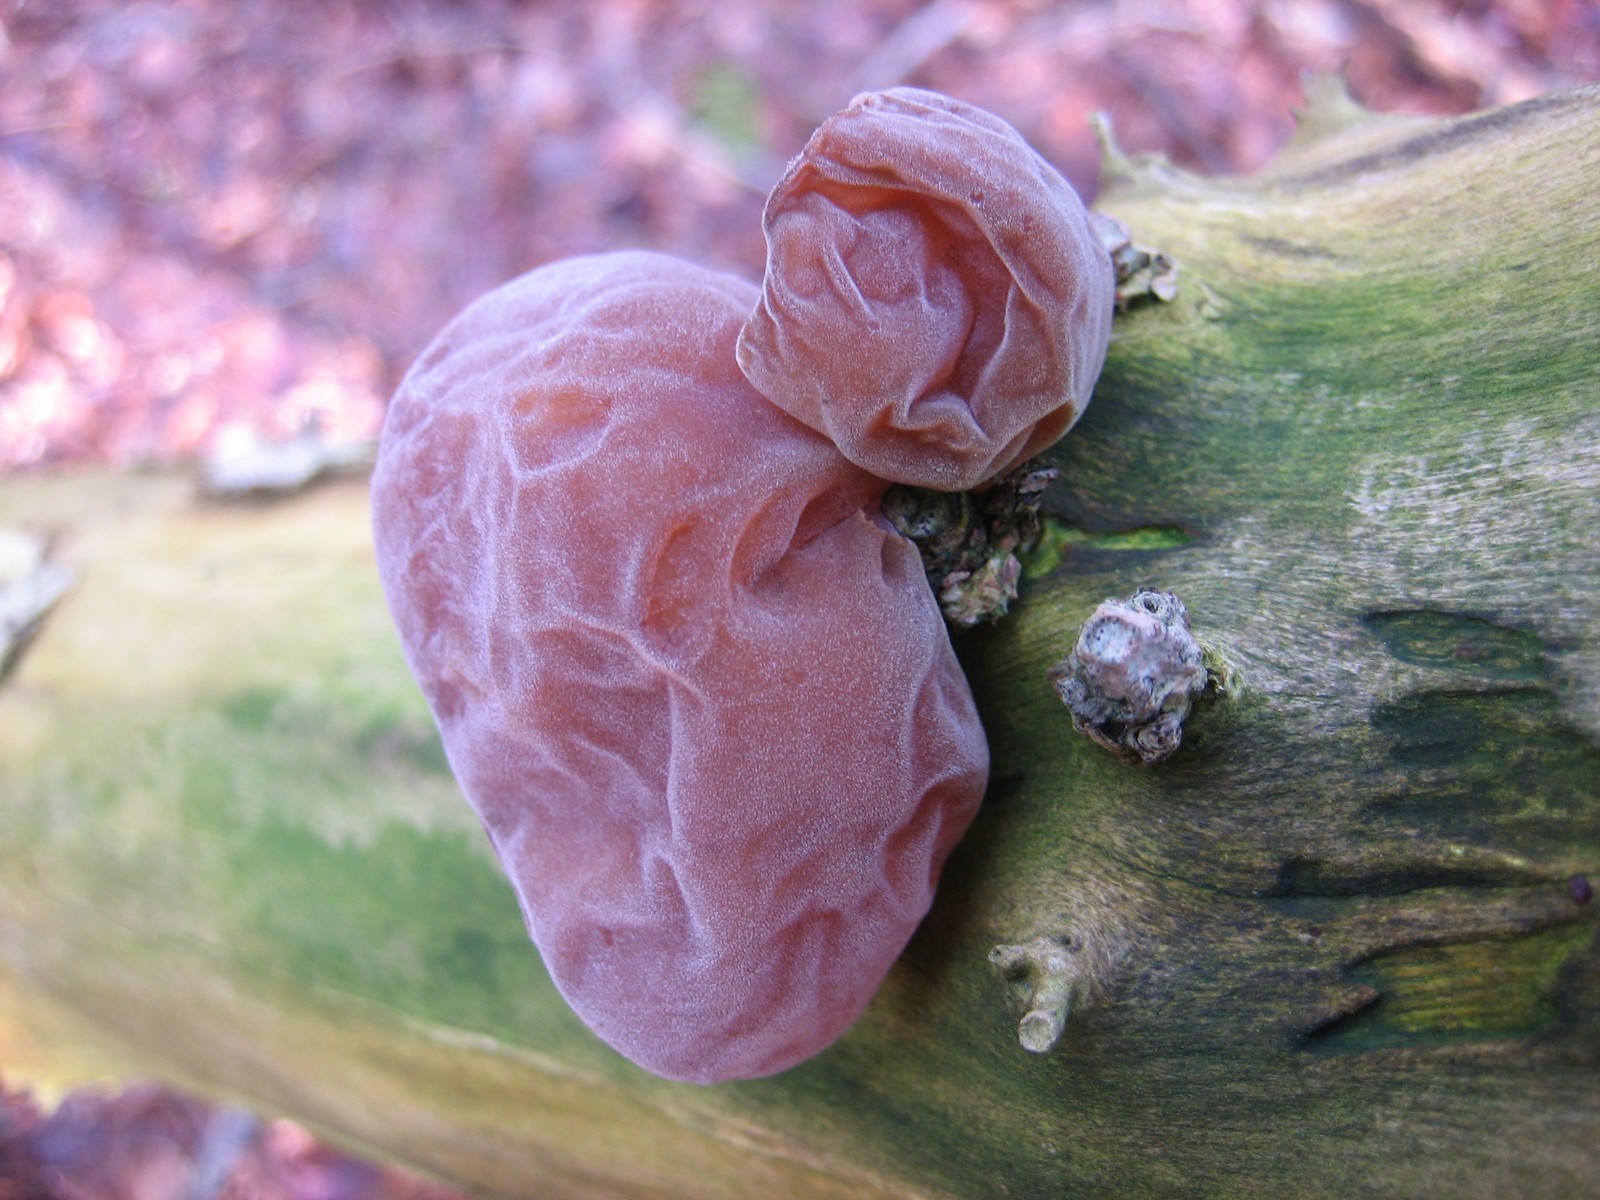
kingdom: Fungi
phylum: Basidiomycota
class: Agaricomycetes
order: Auriculariales
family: Auriculariaceae
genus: Auricularia
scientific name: Auricularia auricula-judae
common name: almindelig judasøre
